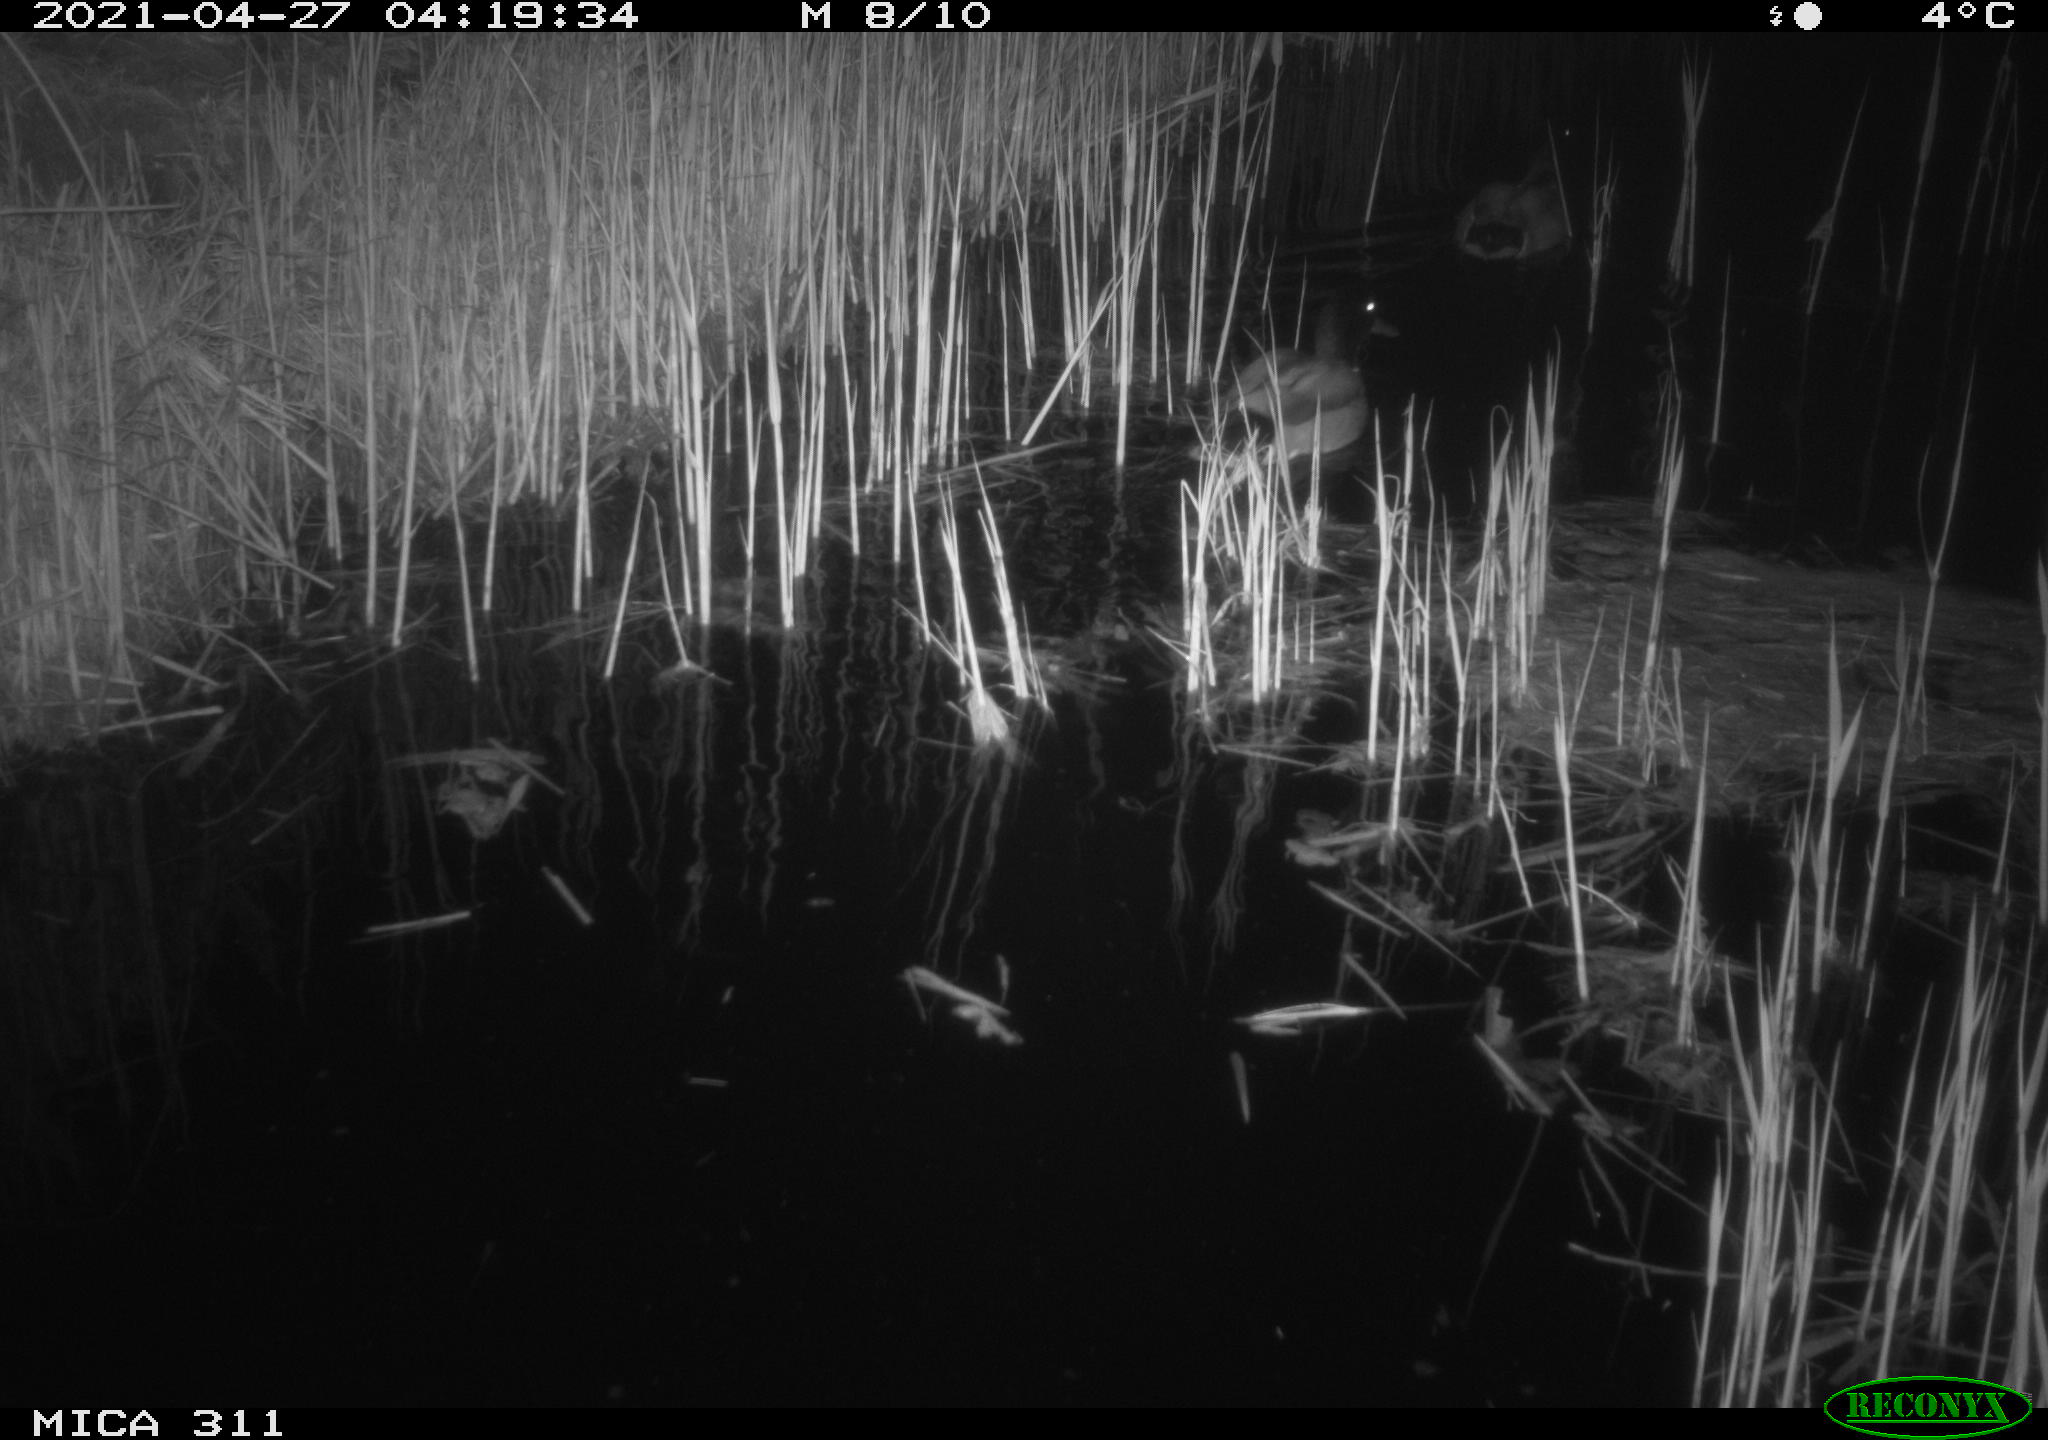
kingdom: Animalia
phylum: Chordata
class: Aves
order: Anseriformes
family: Anatidae
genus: Anas
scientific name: Anas platyrhynchos
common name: Mallard
